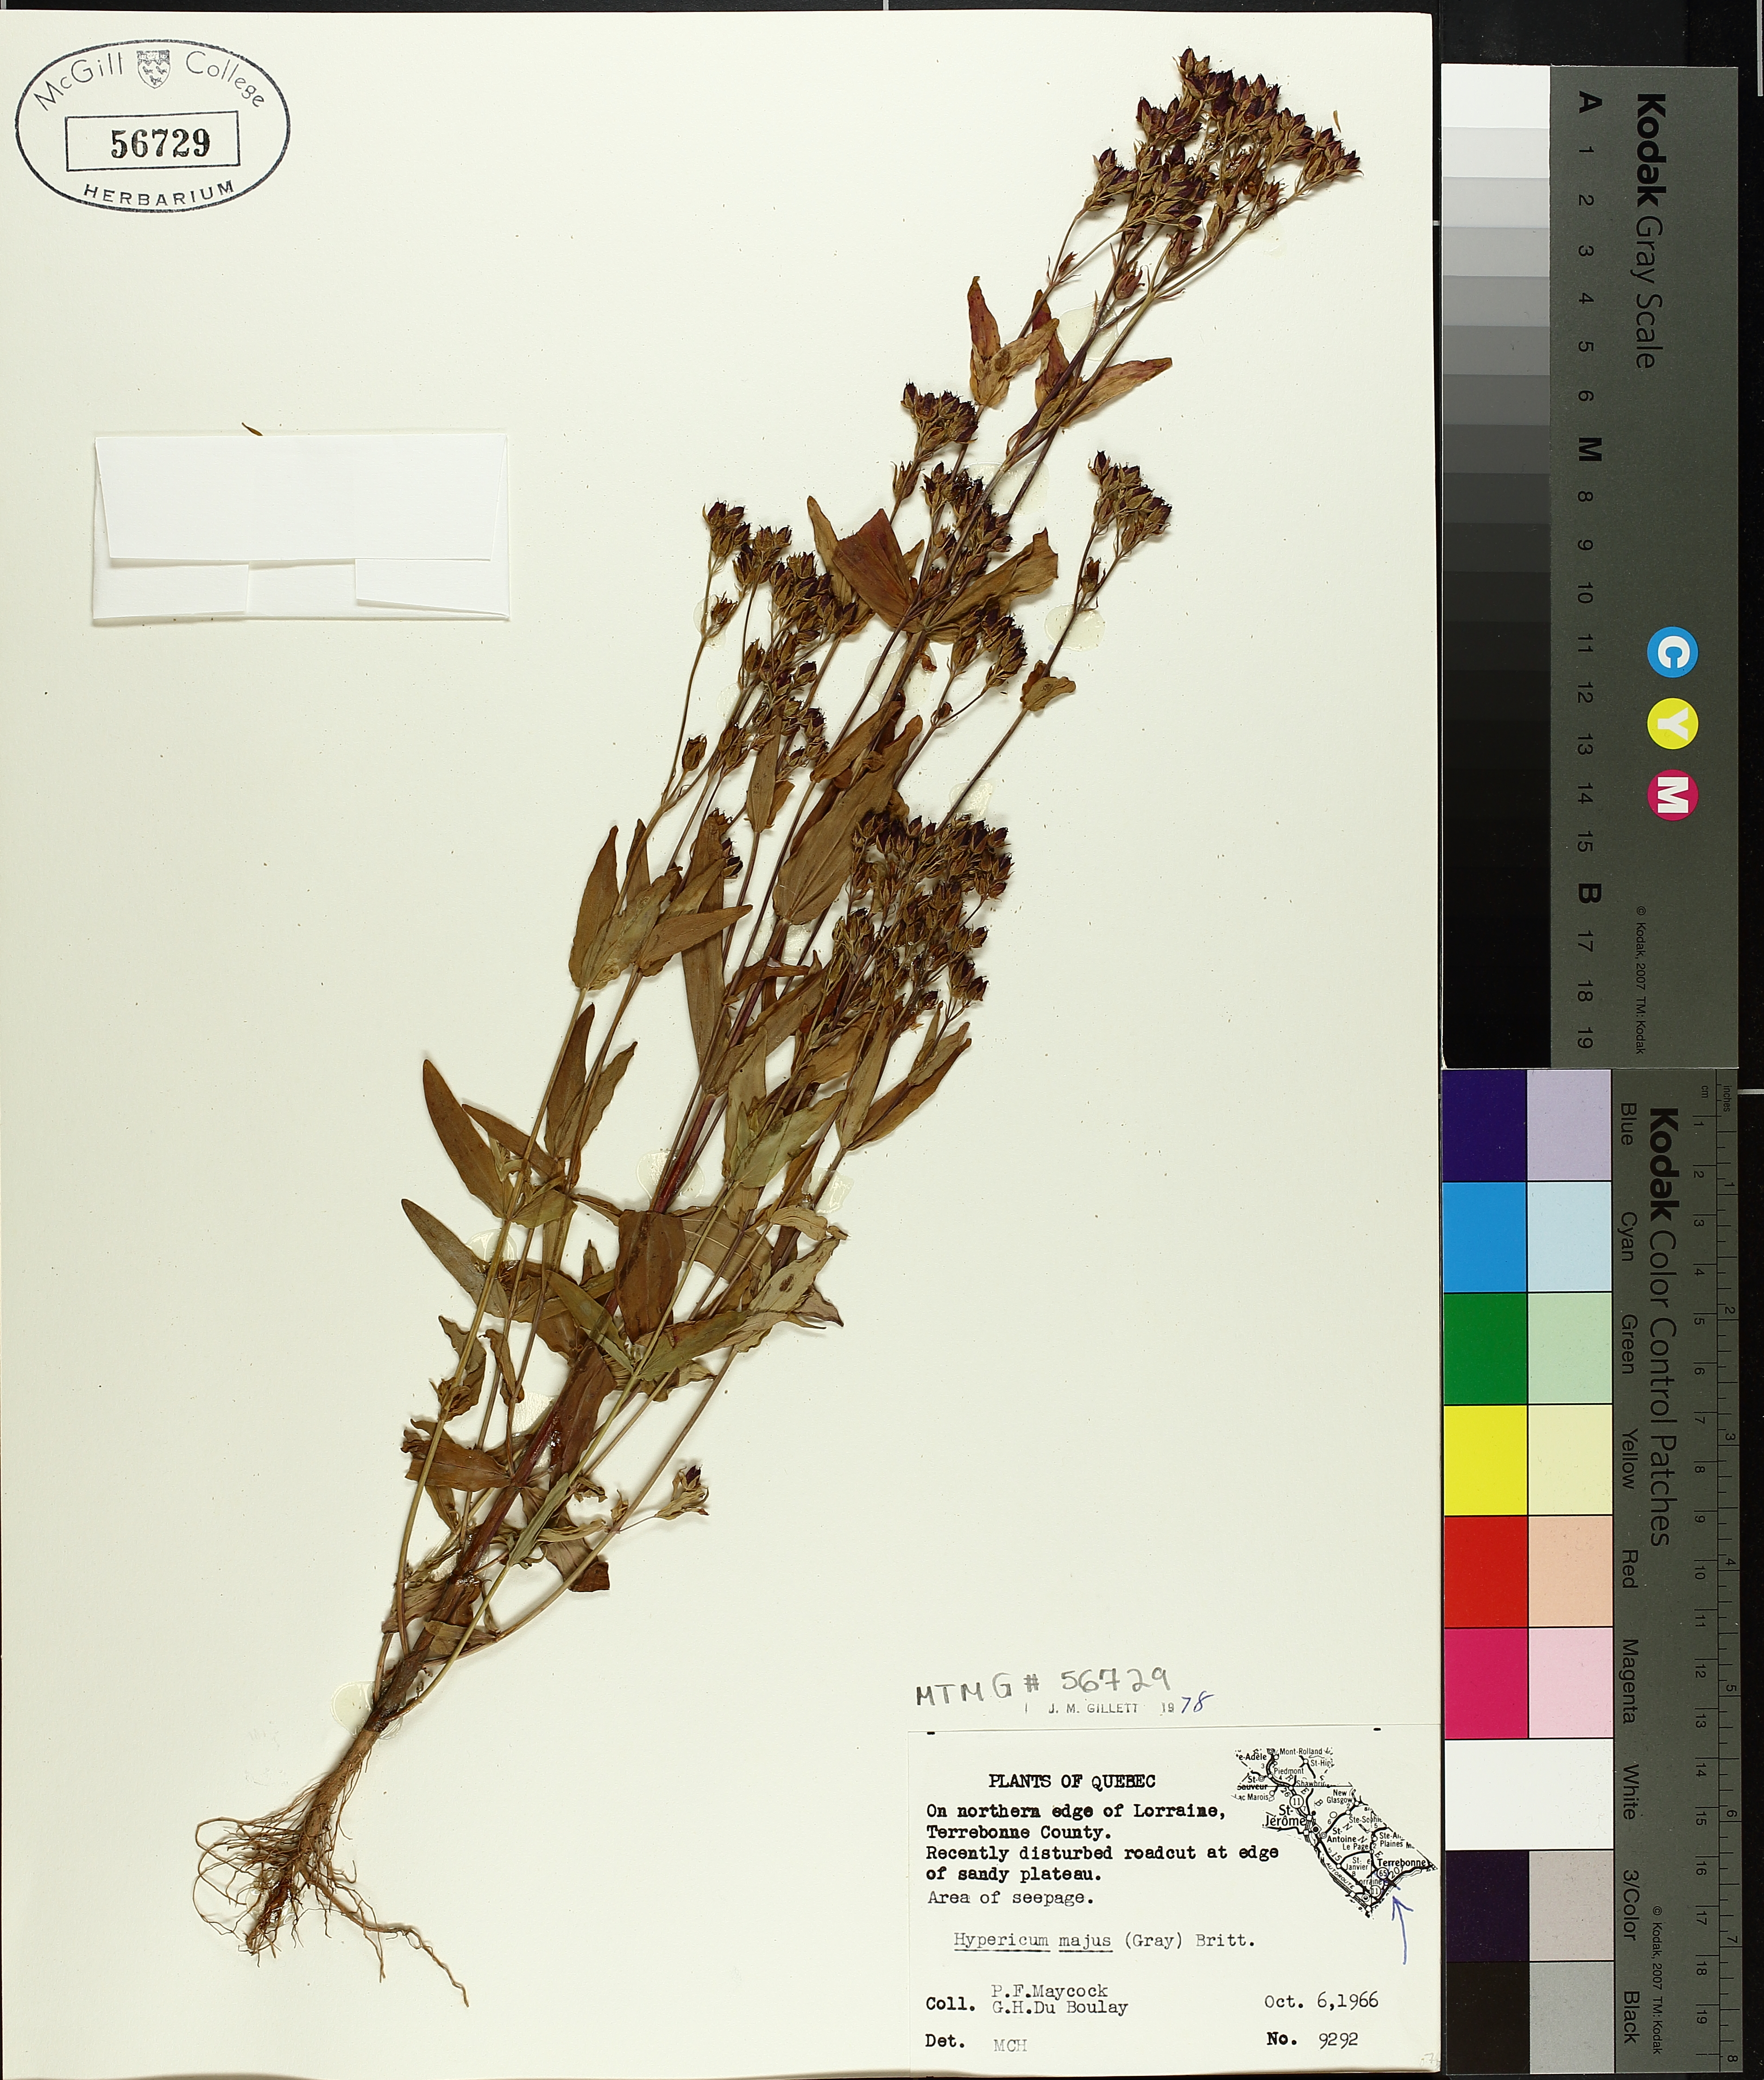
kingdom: Plantae
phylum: Tracheophyta
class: Magnoliopsida
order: Malpighiales
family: Hypericaceae
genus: Hypericum
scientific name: Hypericum majus
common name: Greater canadian st. john's-wort
